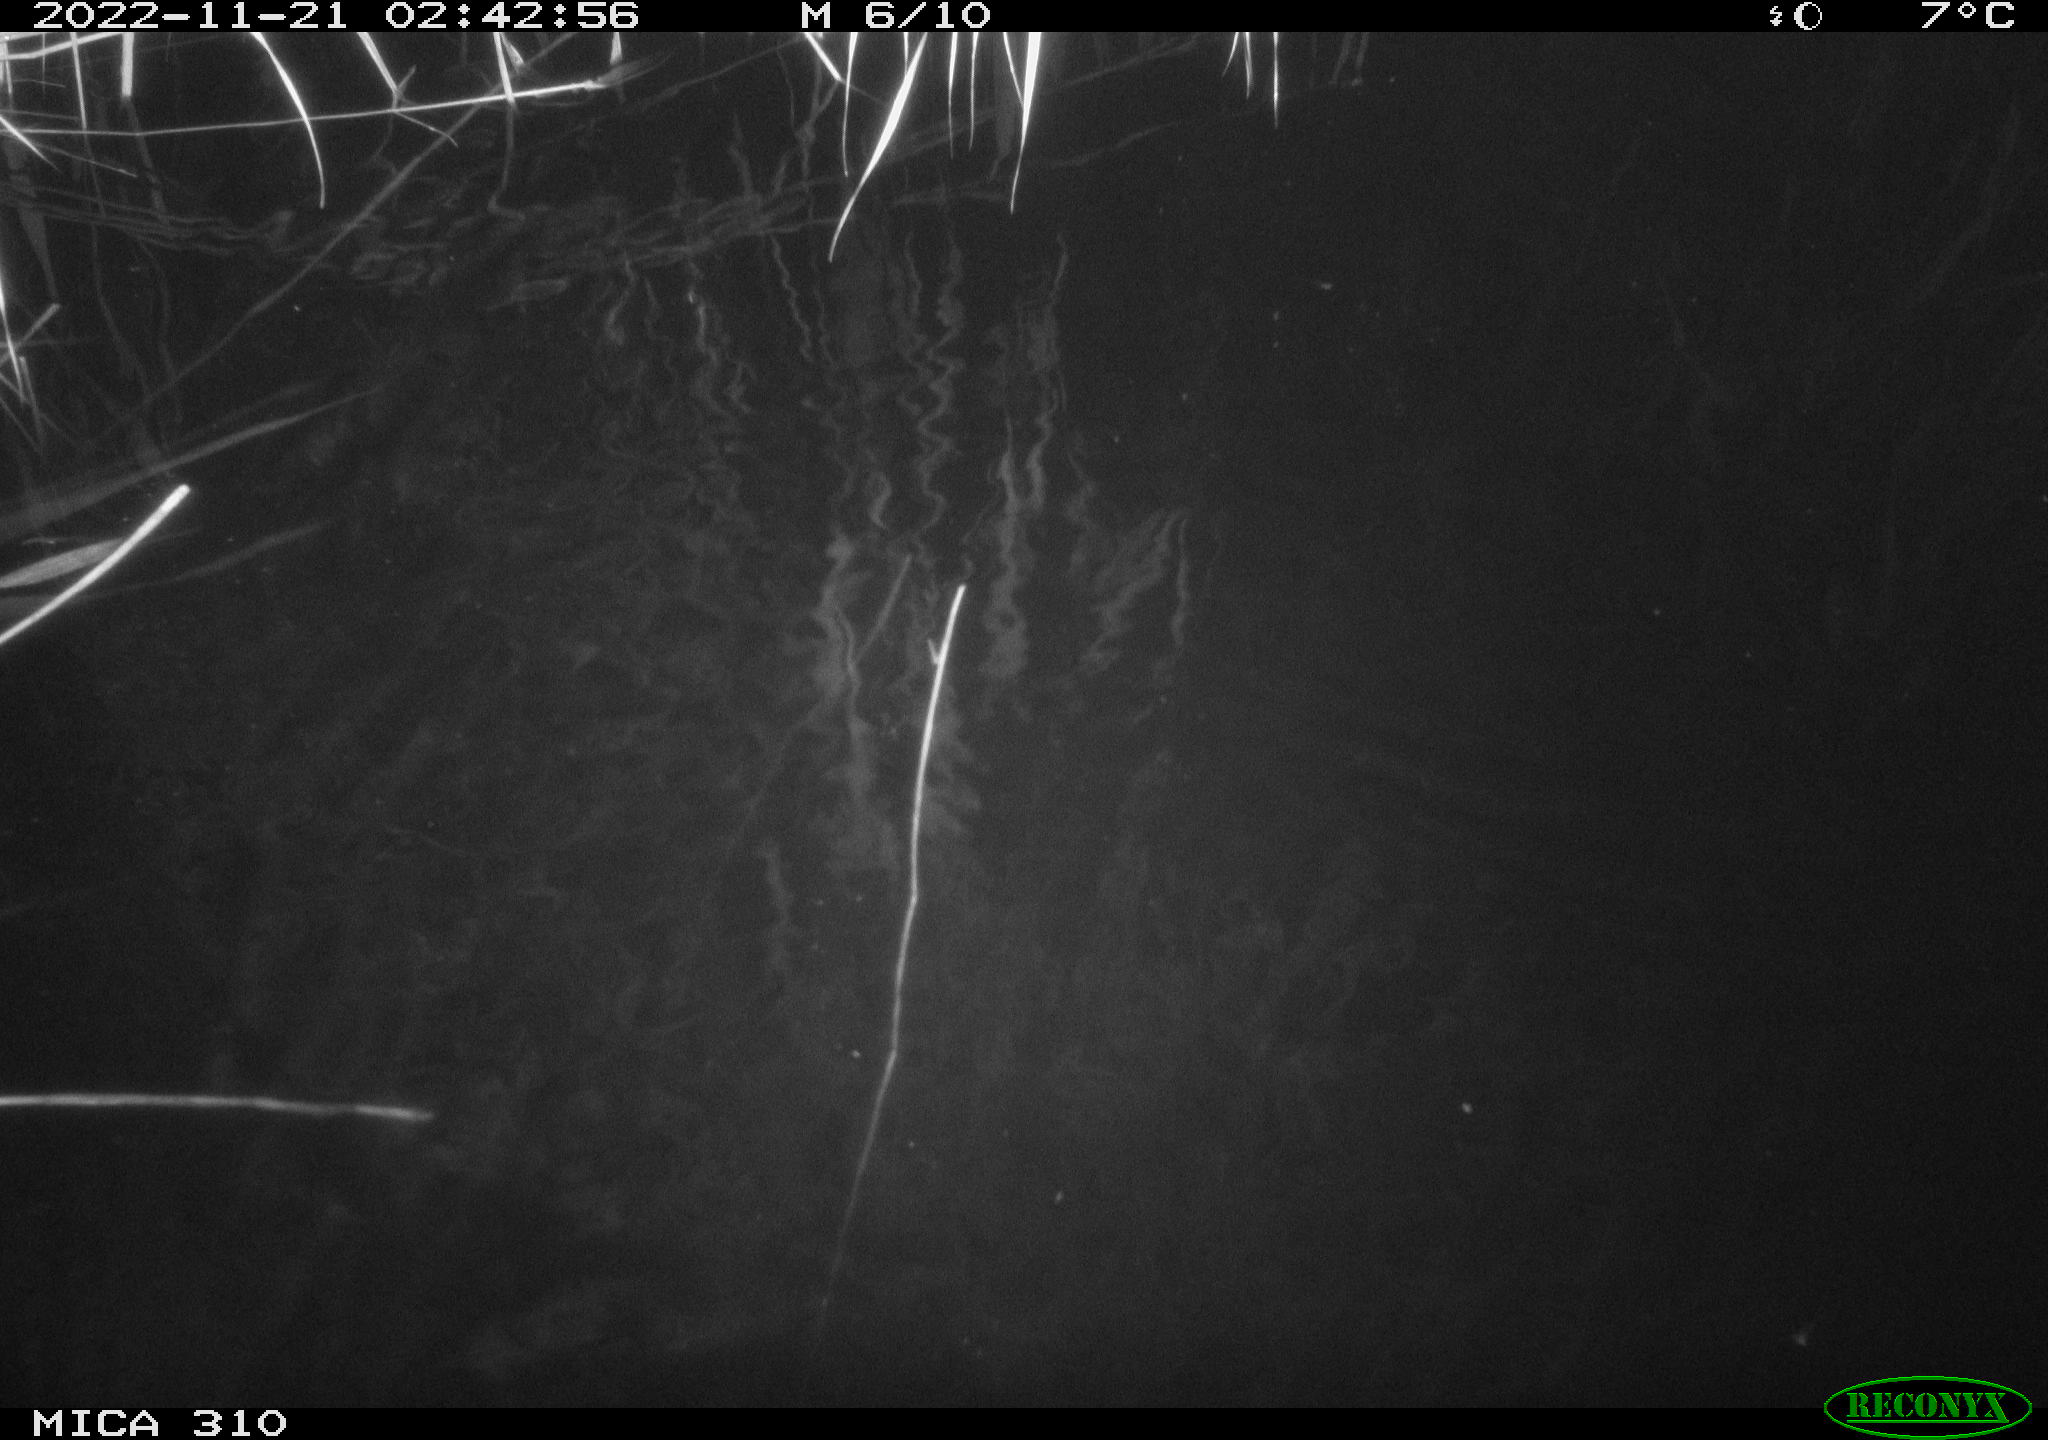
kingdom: Animalia
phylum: Chordata
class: Mammalia
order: Rodentia
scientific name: Rodentia
